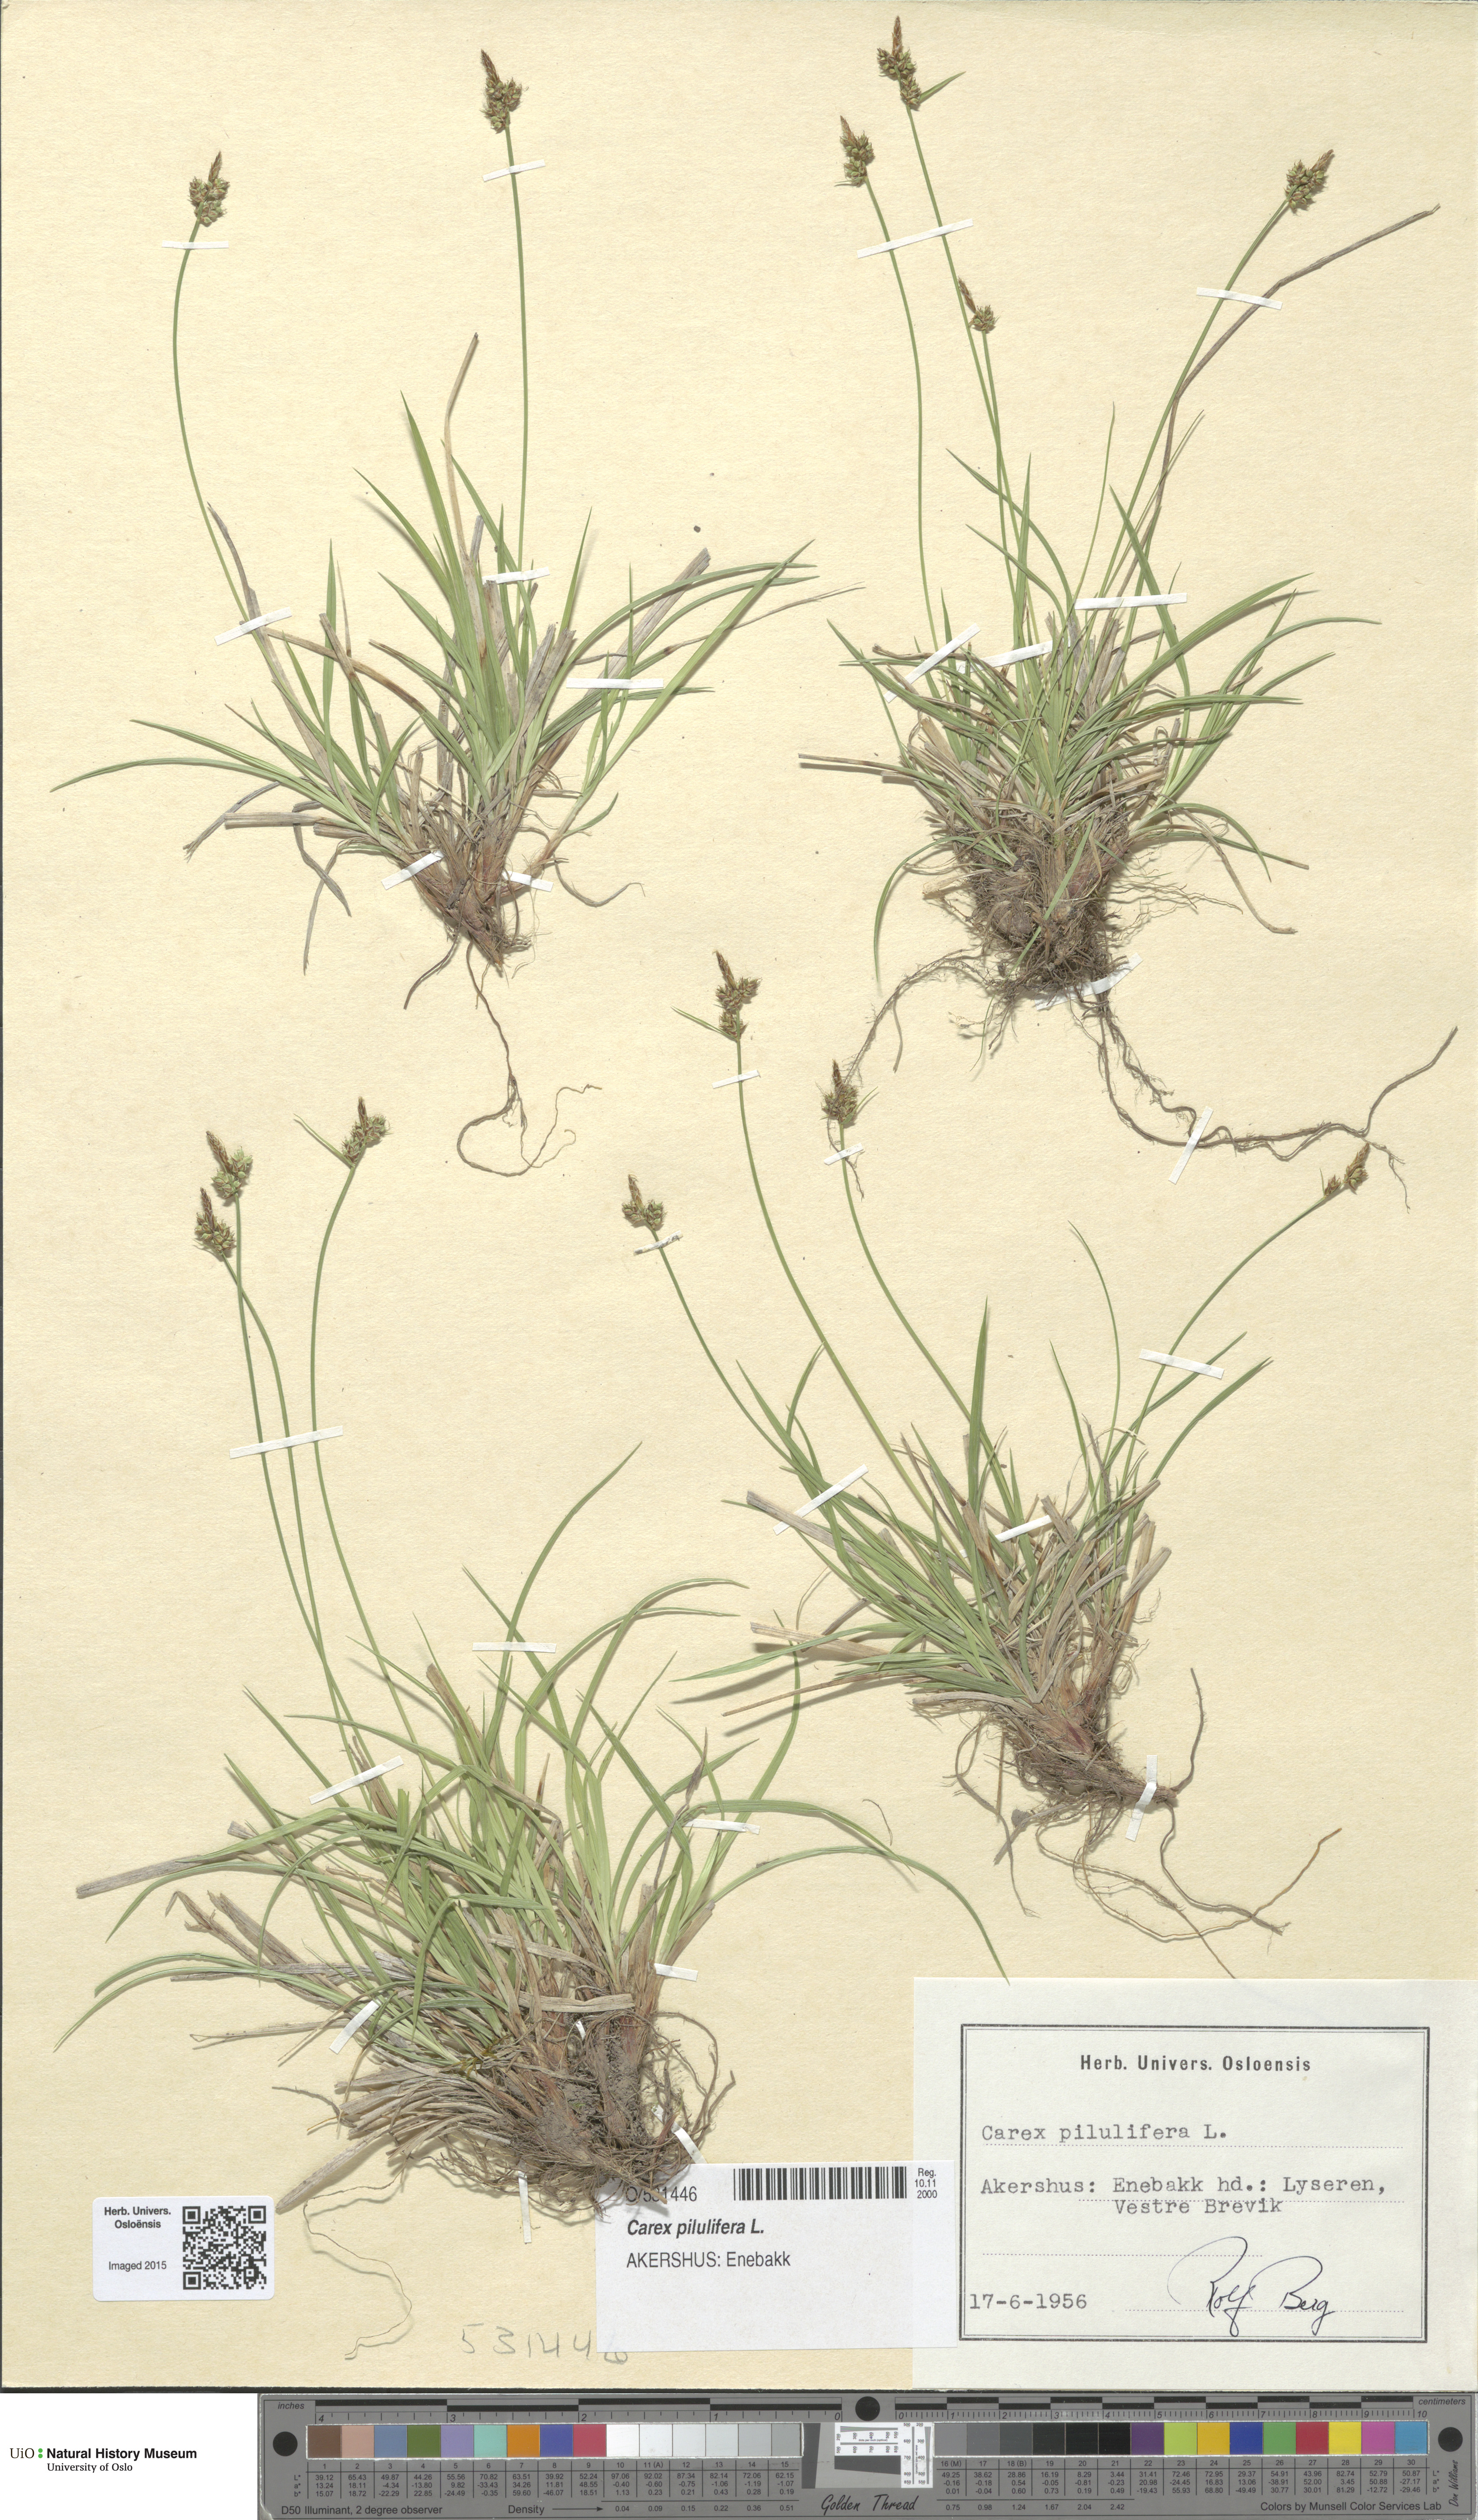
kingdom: Plantae
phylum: Tracheophyta
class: Liliopsida
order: Poales
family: Cyperaceae
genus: Carex
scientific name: Carex pilulifera
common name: Pill sedge
